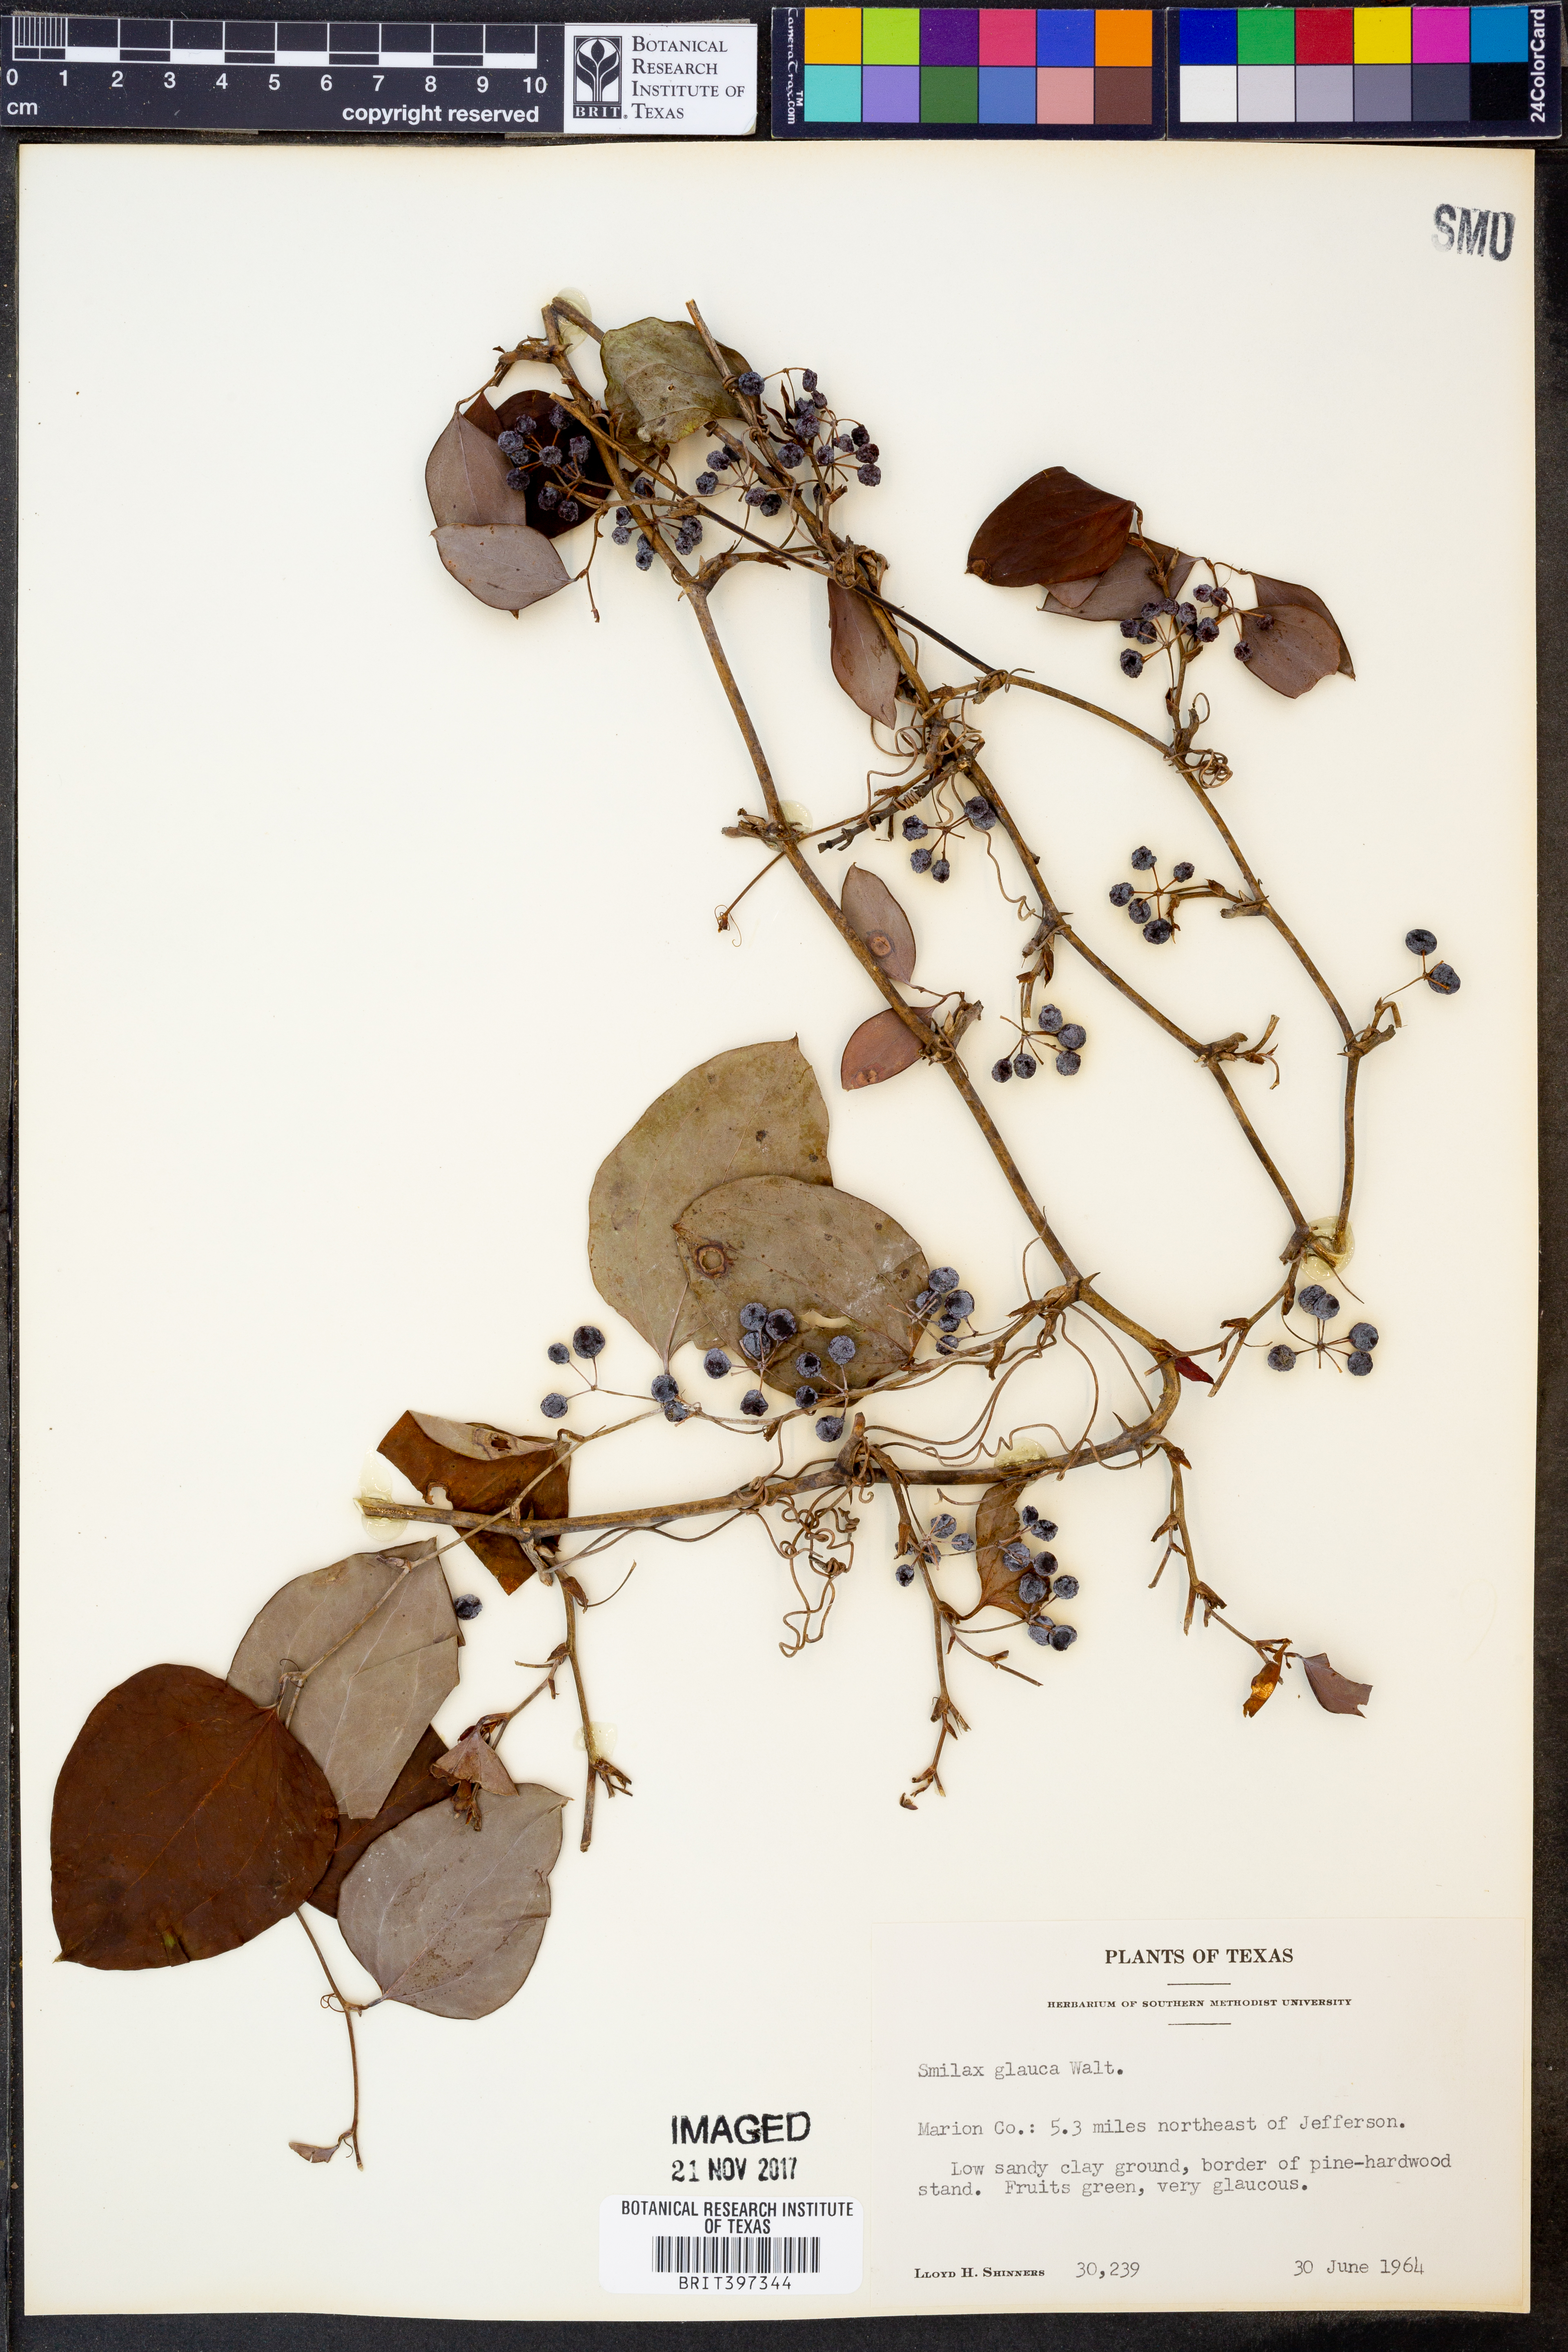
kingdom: Plantae
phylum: Tracheophyta
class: Liliopsida
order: Liliales
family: Smilacaceae
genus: Smilax
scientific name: Smilax glauca
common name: Cat greenbrier
